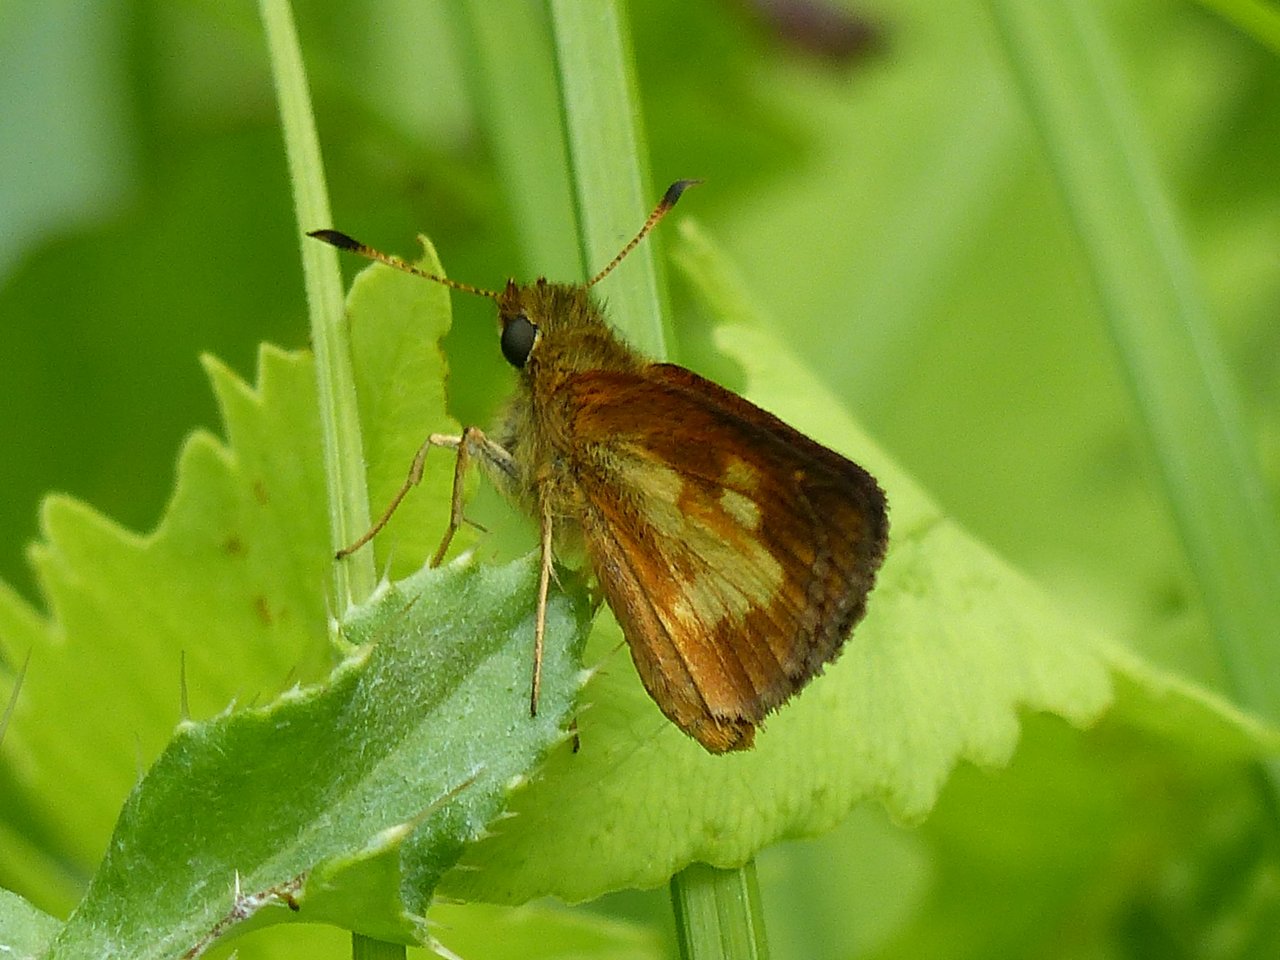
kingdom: Animalia
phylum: Arthropoda
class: Insecta
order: Lepidoptera
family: Hesperiidae
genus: Poanes
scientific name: Poanes massasoit
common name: Mulberry Wing
